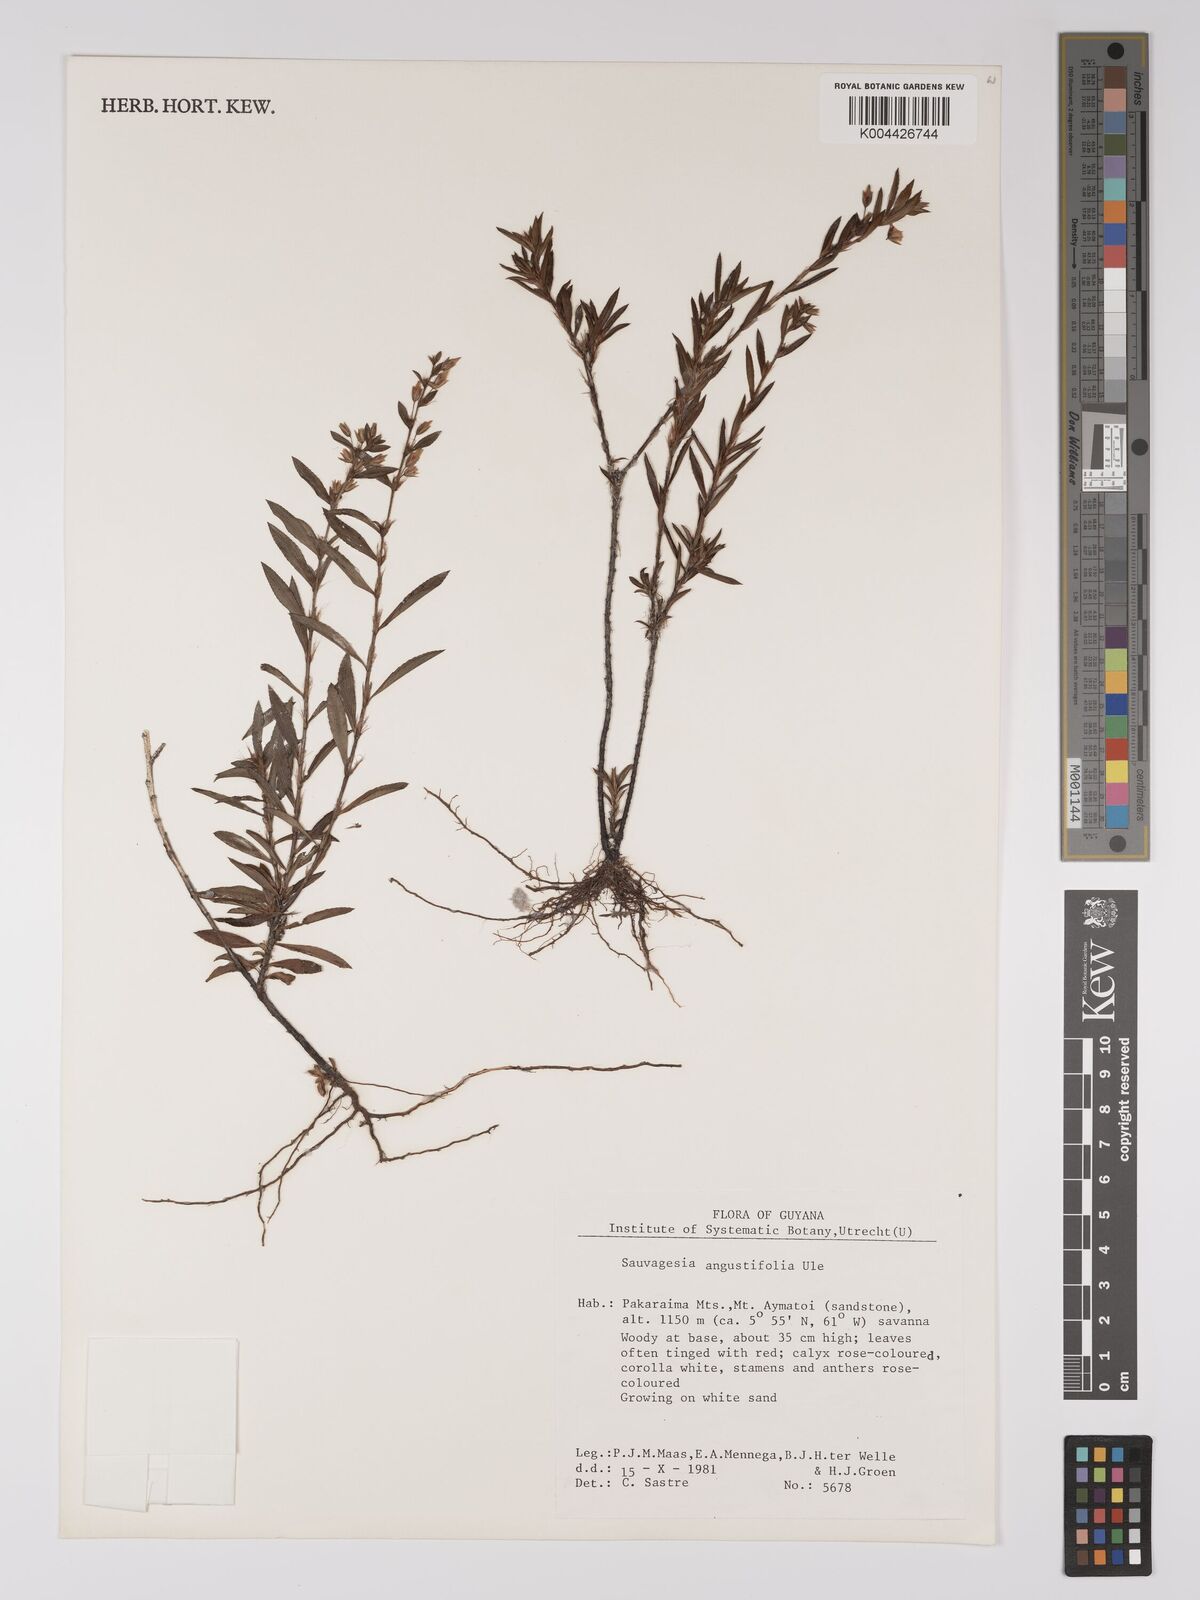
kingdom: Plantae
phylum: Tracheophyta
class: Magnoliopsida
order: Malpighiales
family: Ochnaceae
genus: Sauvagesia
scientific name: Sauvagesia angustifolia
